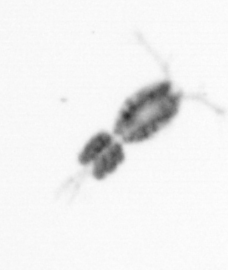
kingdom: Animalia
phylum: Arthropoda
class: Copepoda
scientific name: Copepoda
